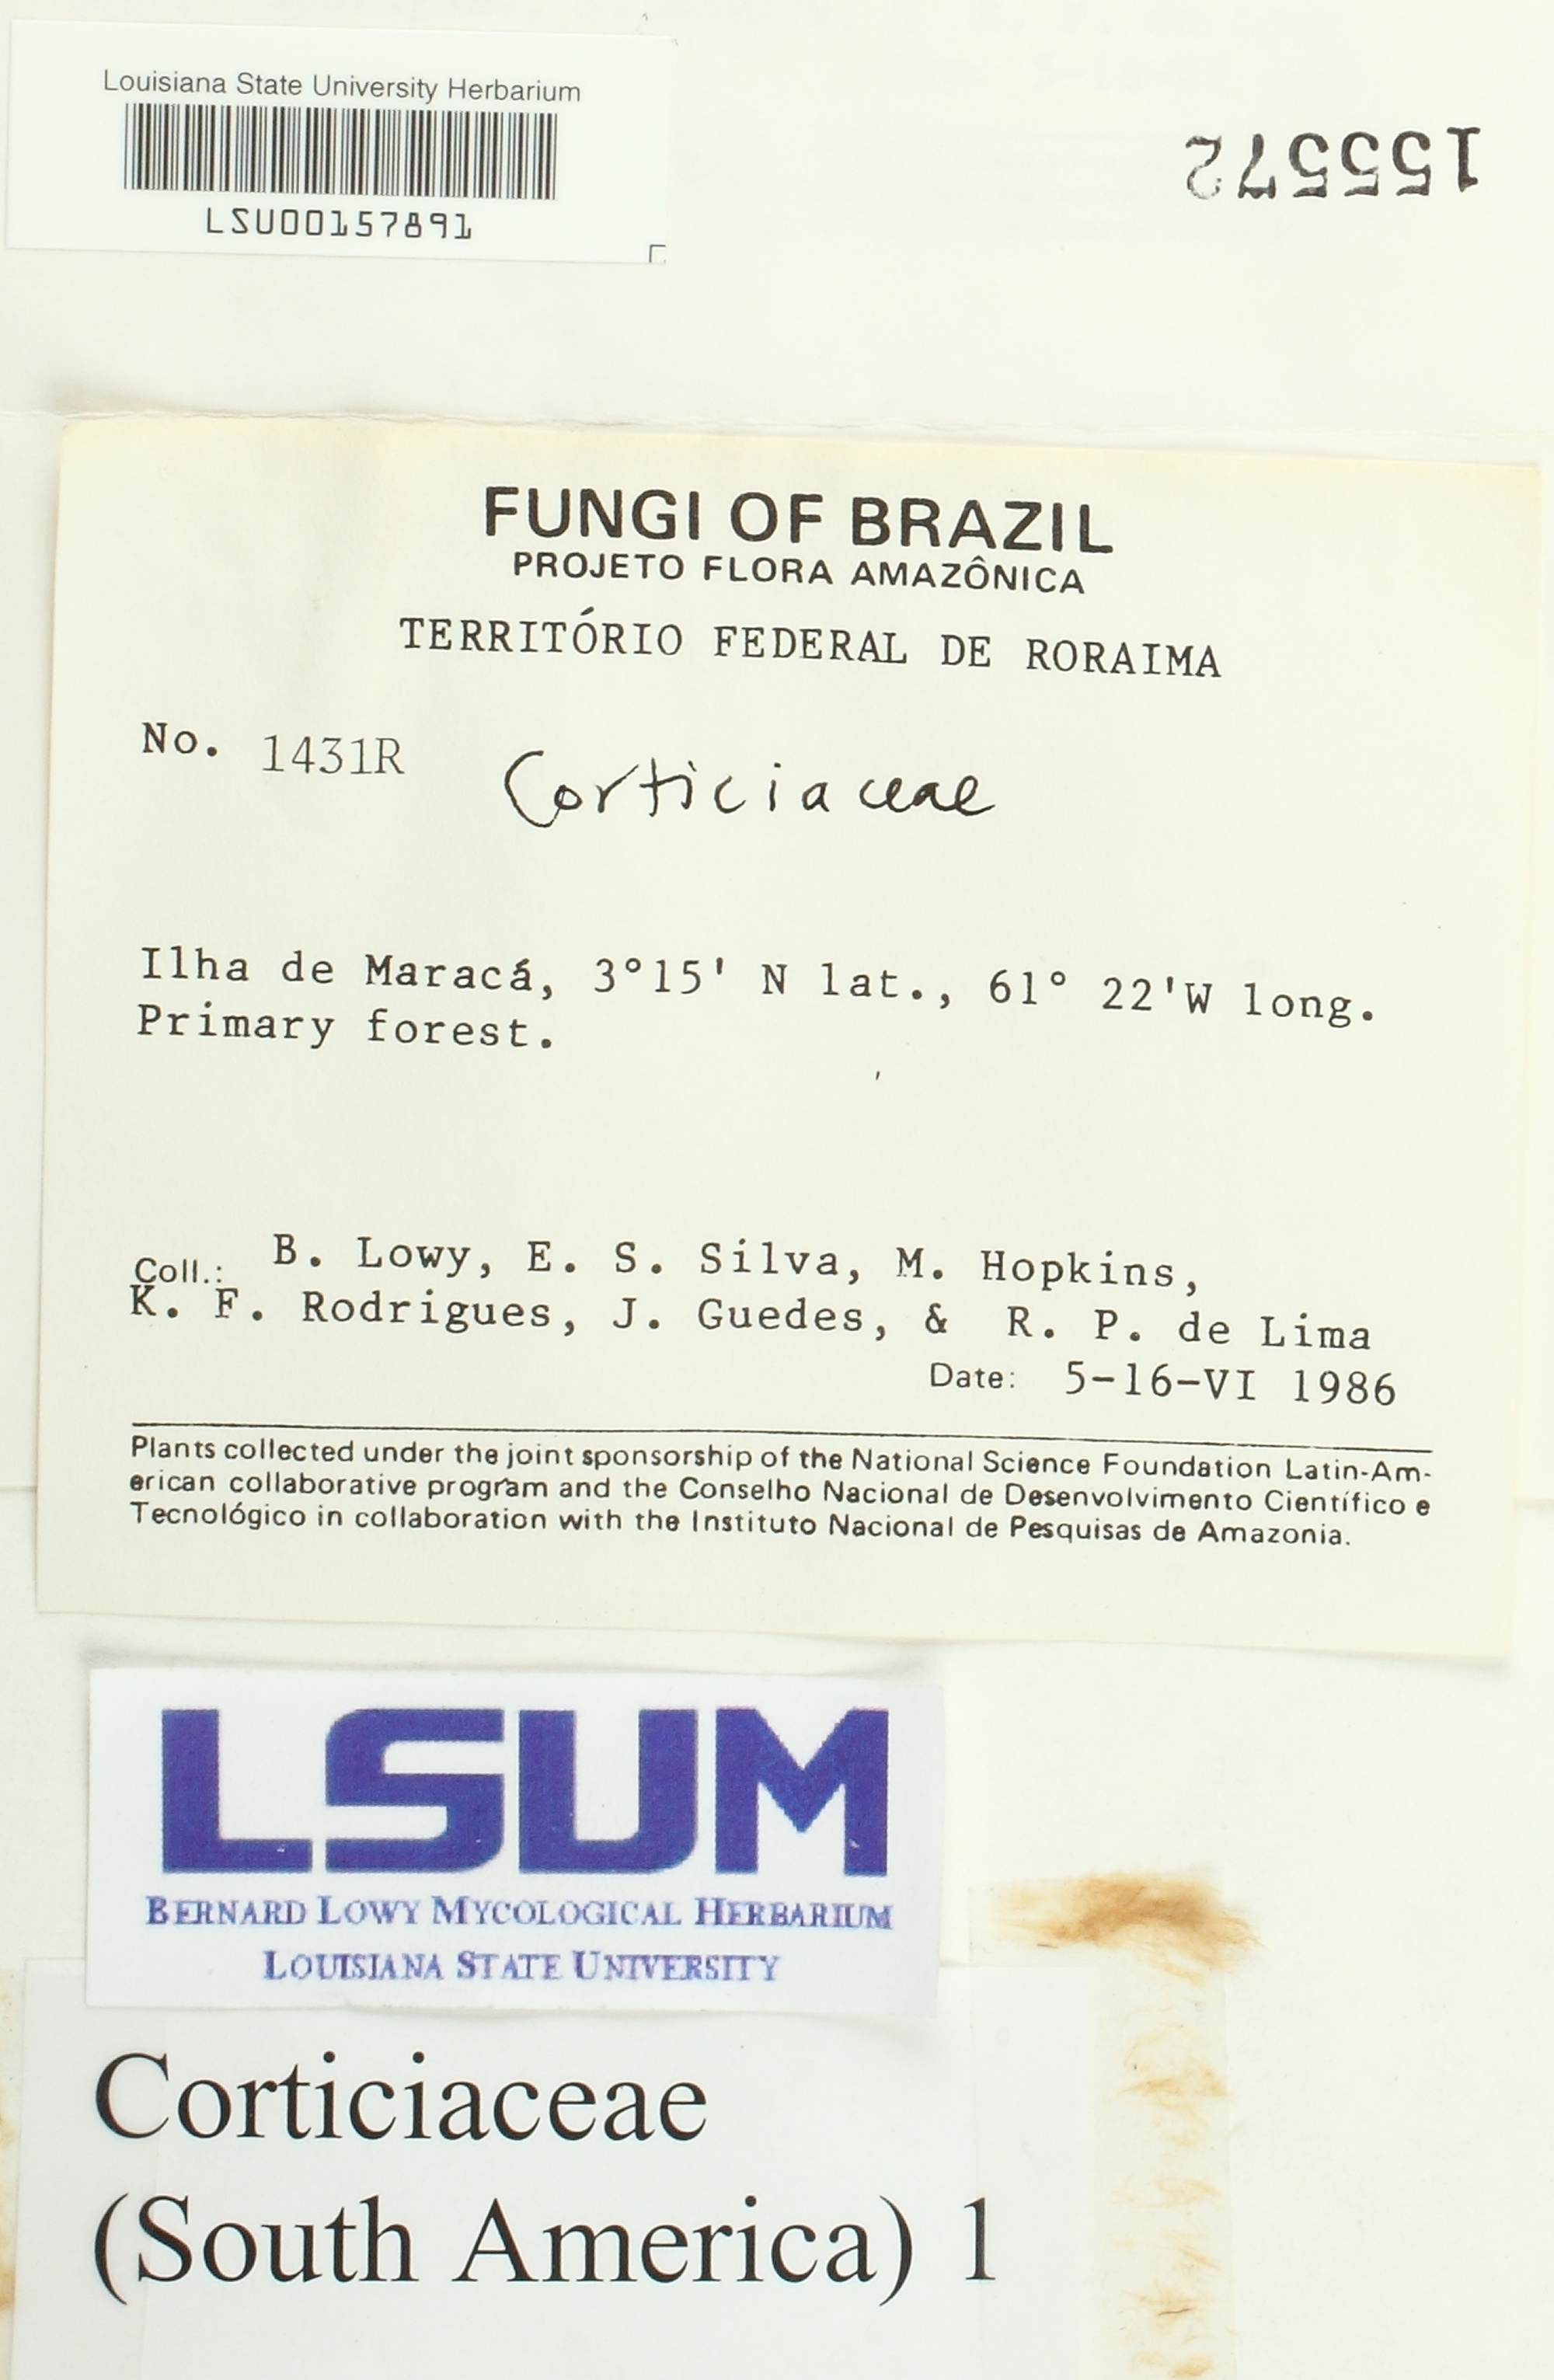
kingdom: Fungi
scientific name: Fungi
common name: Fungi
